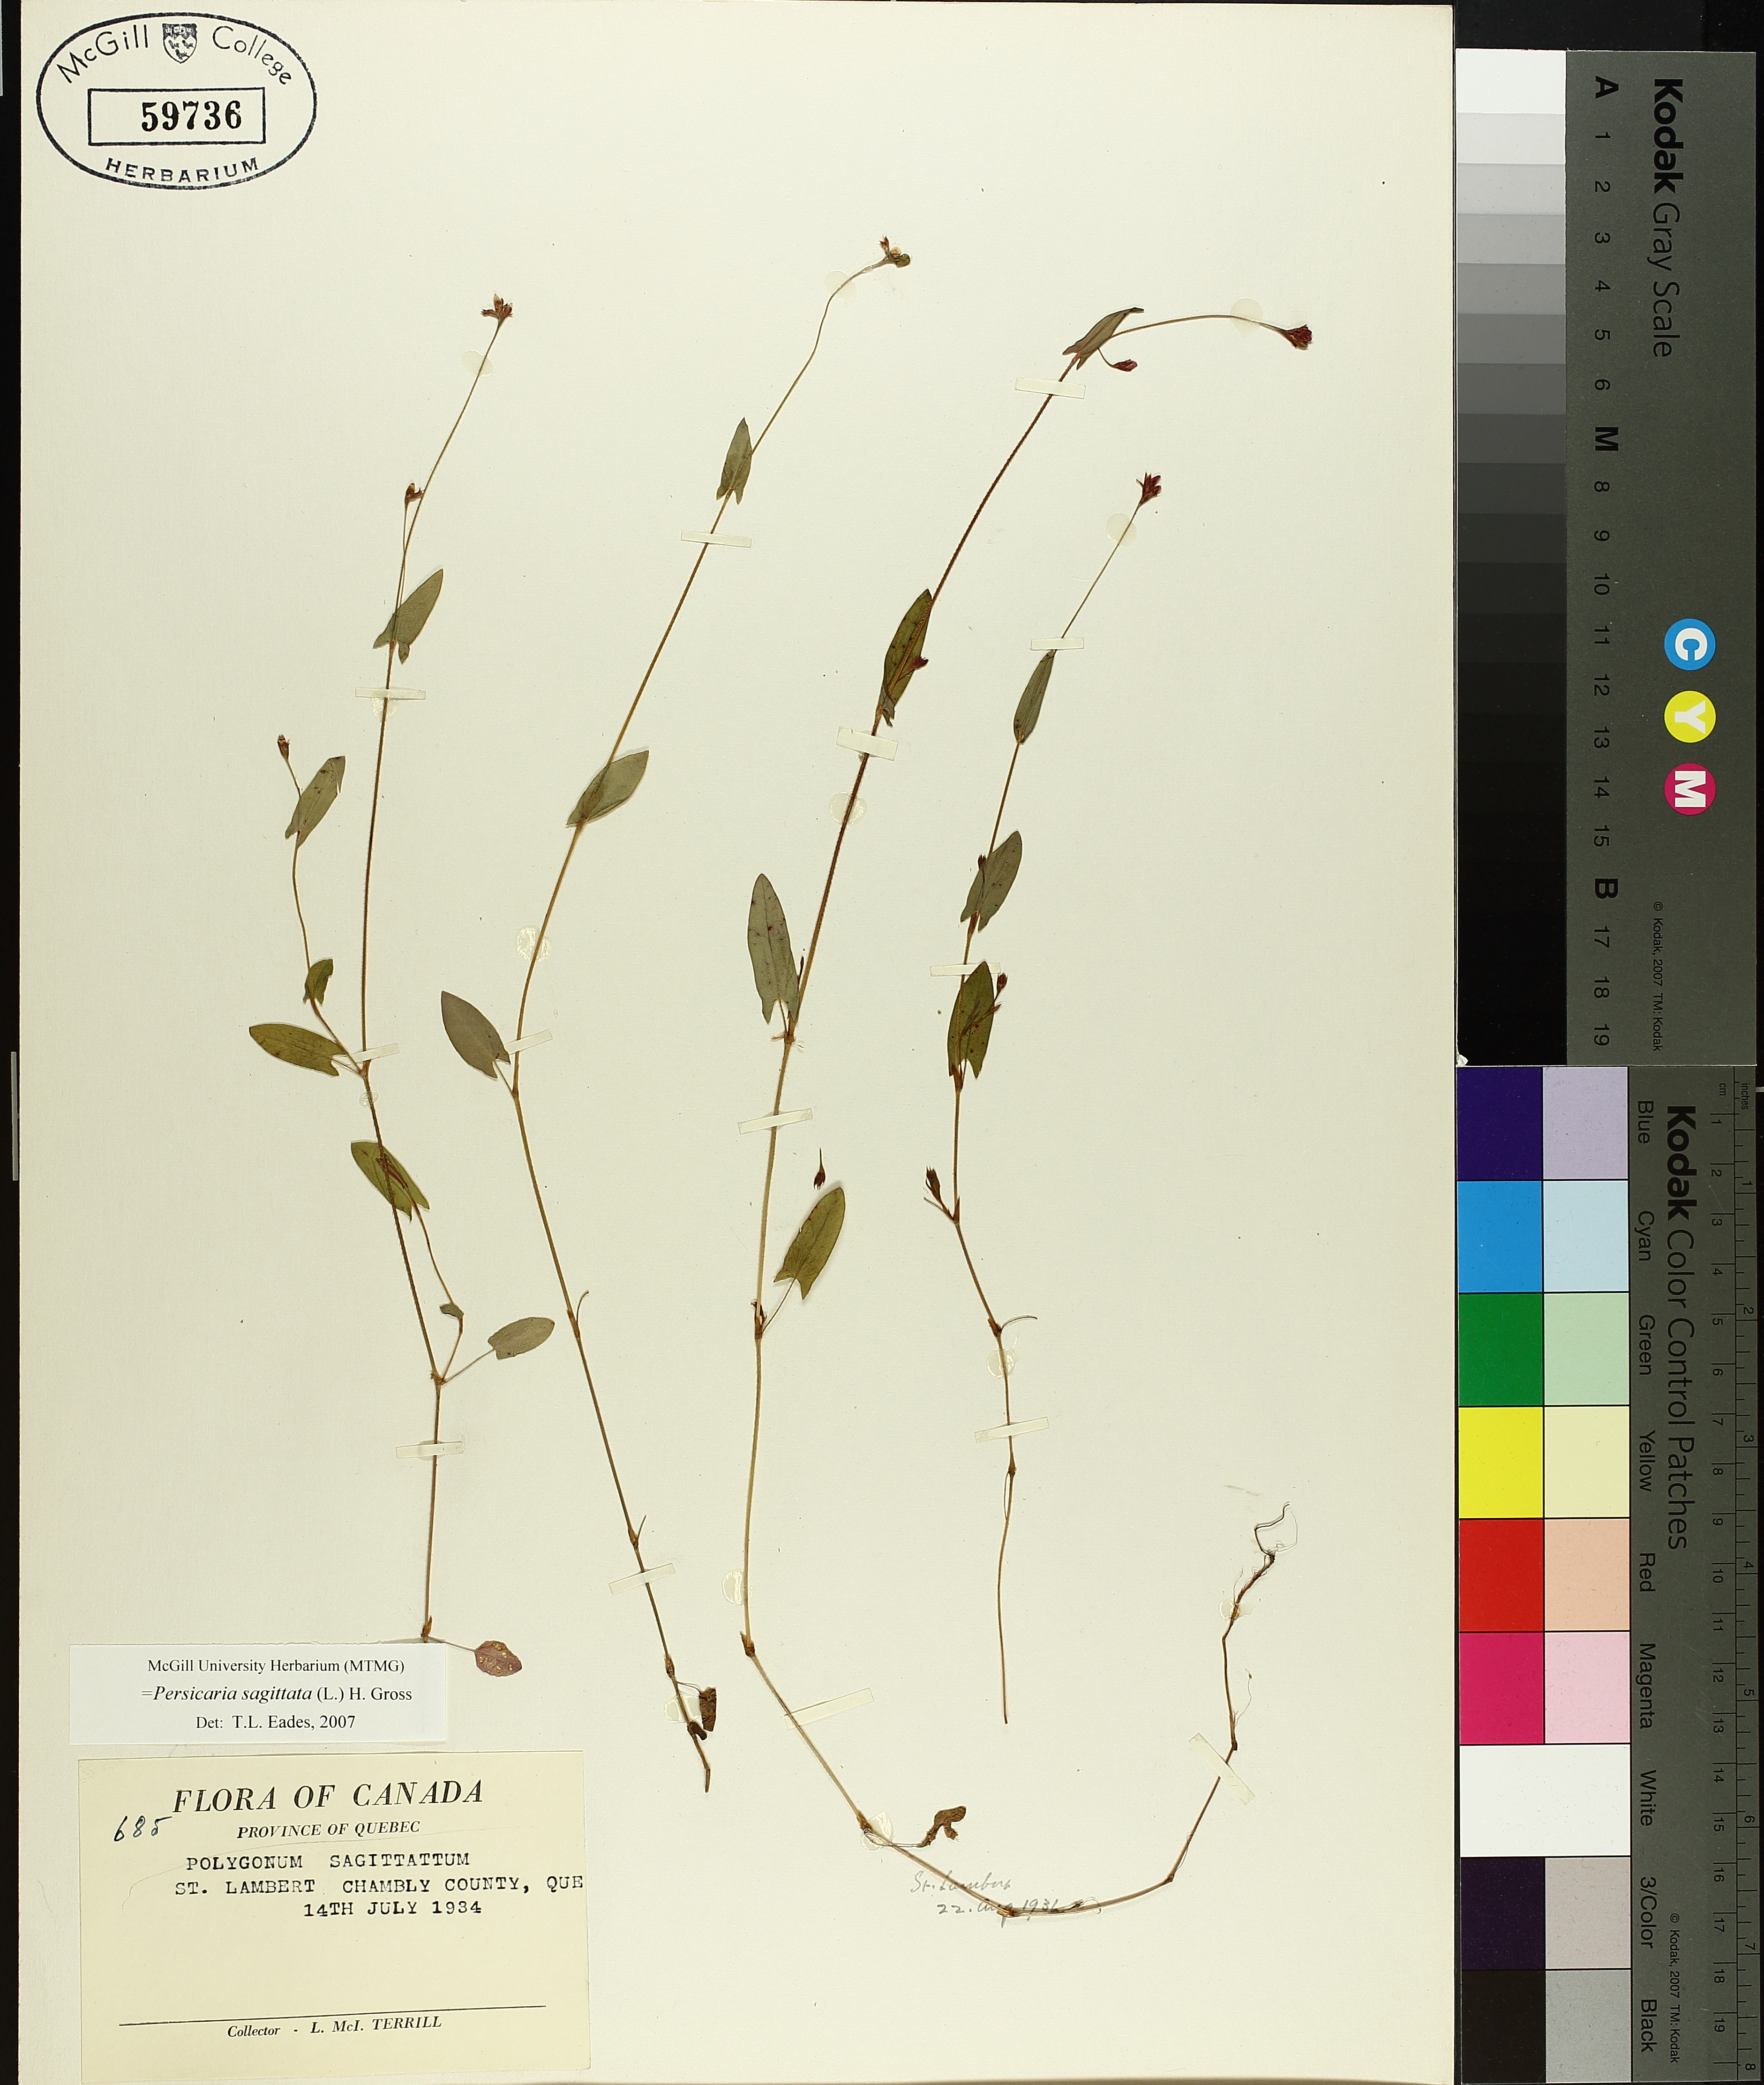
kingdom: Plantae
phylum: Tracheophyta
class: Magnoliopsida
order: Caryophyllales
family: Polygonaceae
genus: Persicaria
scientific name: Persicaria sagittata
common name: American tearthumb
